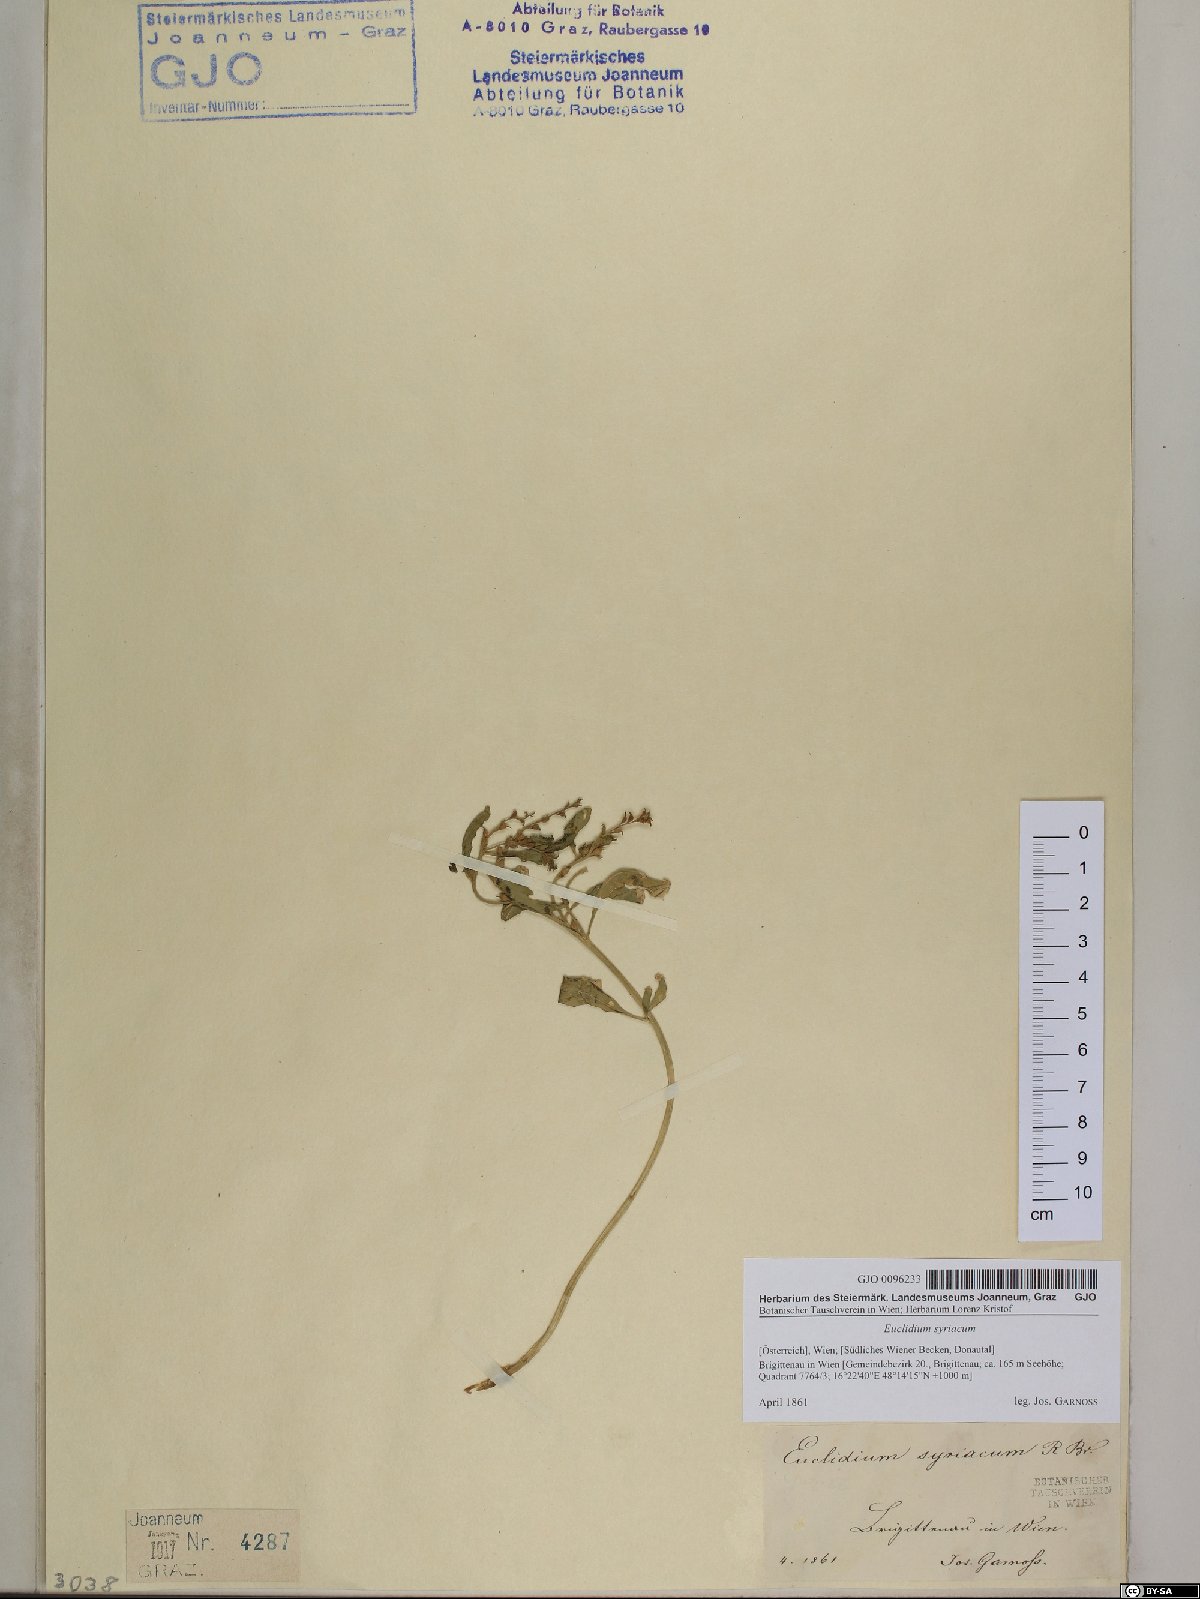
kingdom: Plantae
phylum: Tracheophyta
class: Magnoliopsida
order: Brassicales
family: Brassicaceae
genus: Euclidium
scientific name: Euclidium syriacum
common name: Syrian mustard
